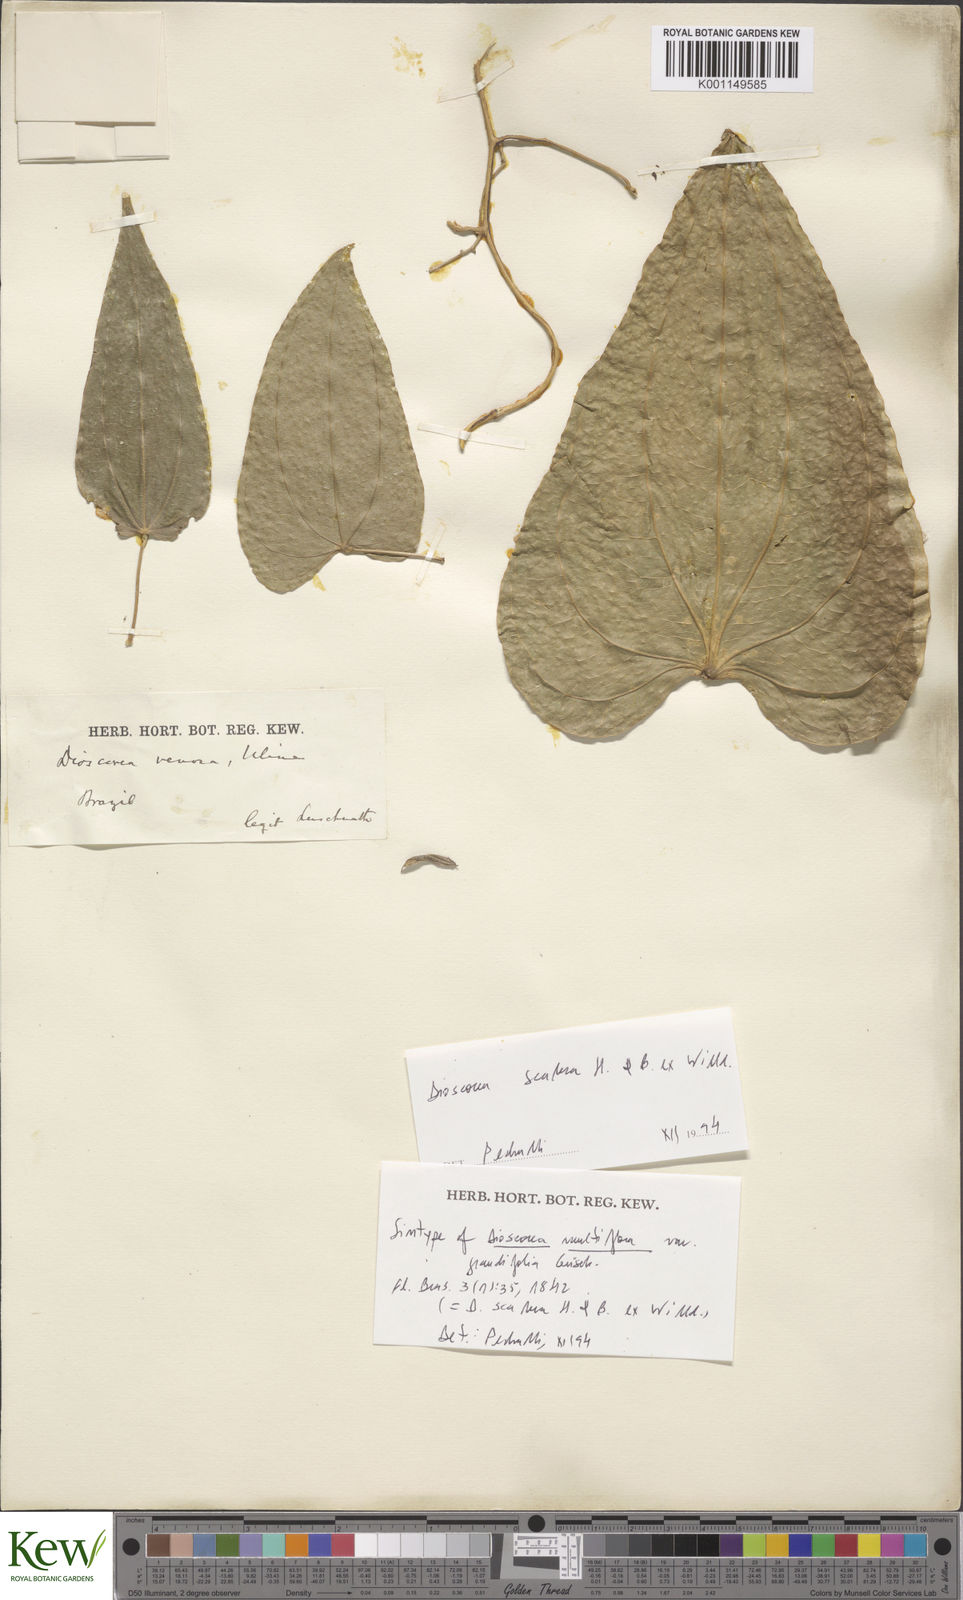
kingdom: Plantae
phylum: Tracheophyta
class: Liliopsida
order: Dioscoreales
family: Dioscoreaceae
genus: Dioscorea
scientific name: Dioscorea fodinarum
